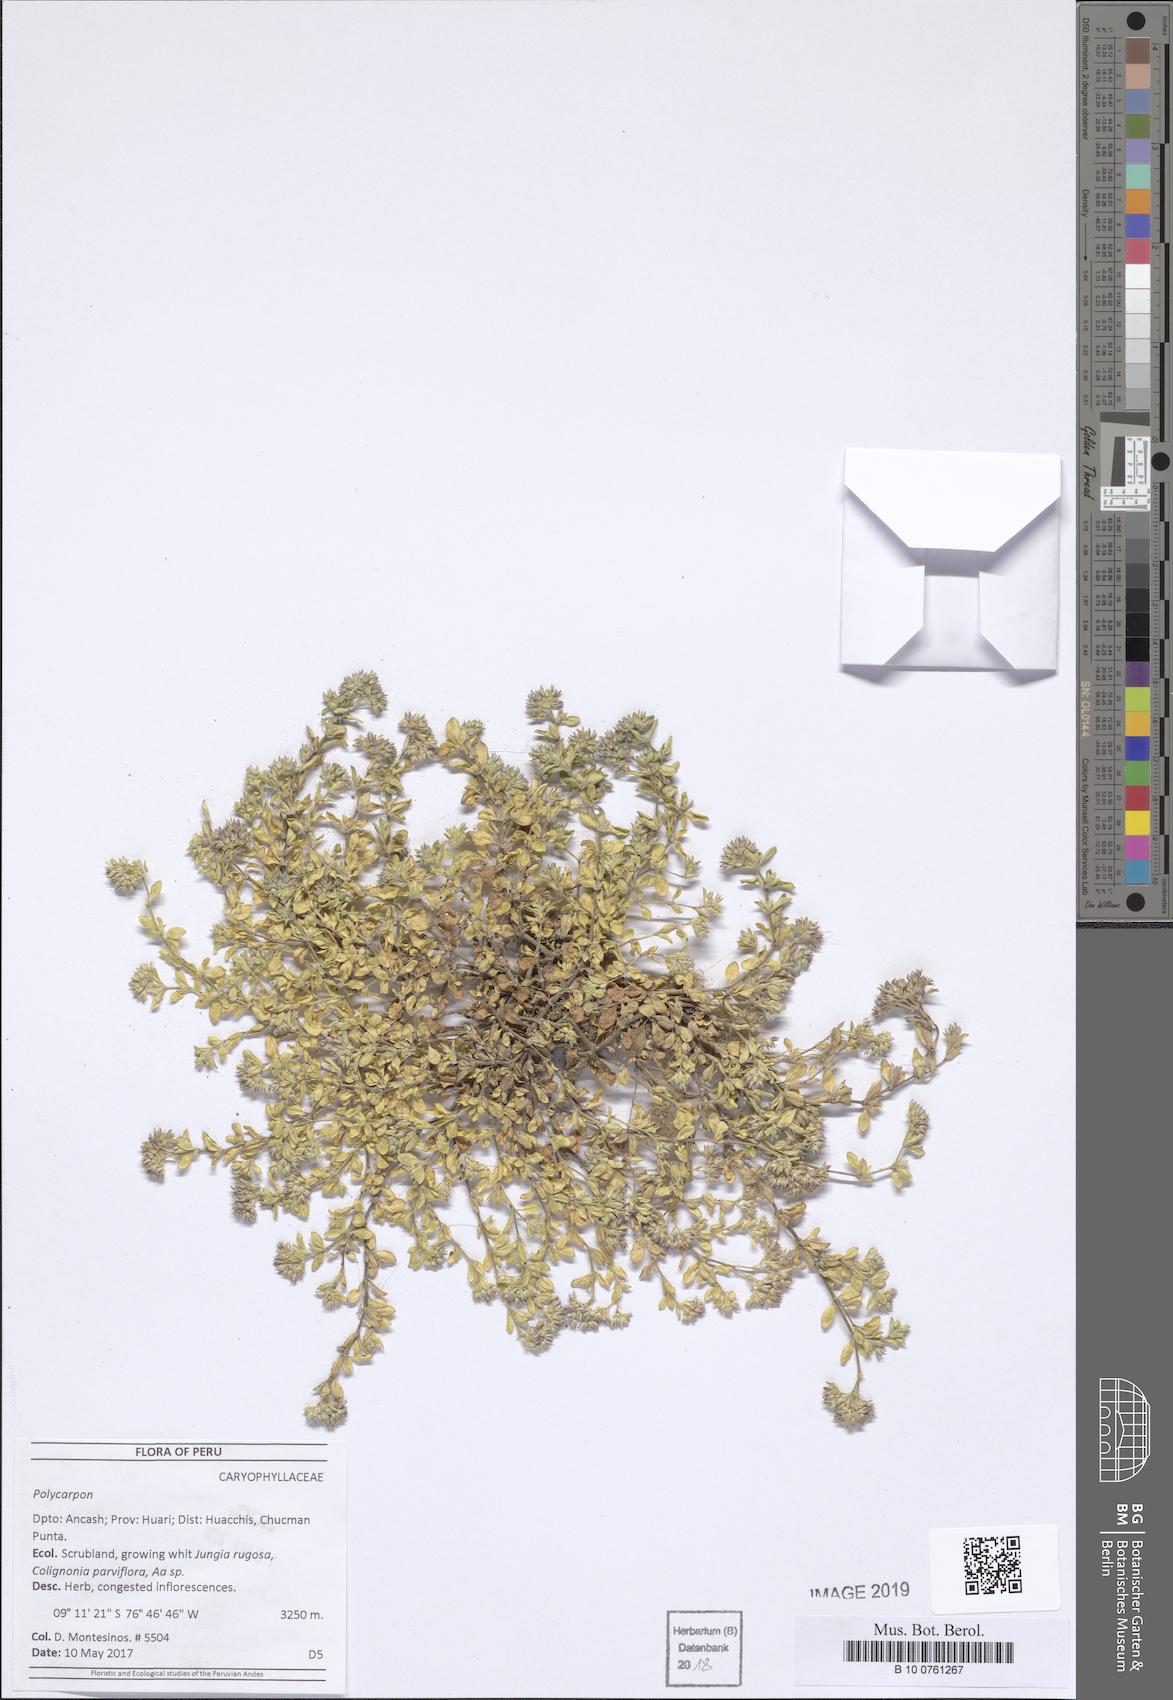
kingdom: Plantae
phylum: Tracheophyta
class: Magnoliopsida
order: Caryophyllales
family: Caryophyllaceae
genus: Polycarpon
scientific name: Polycarpon
